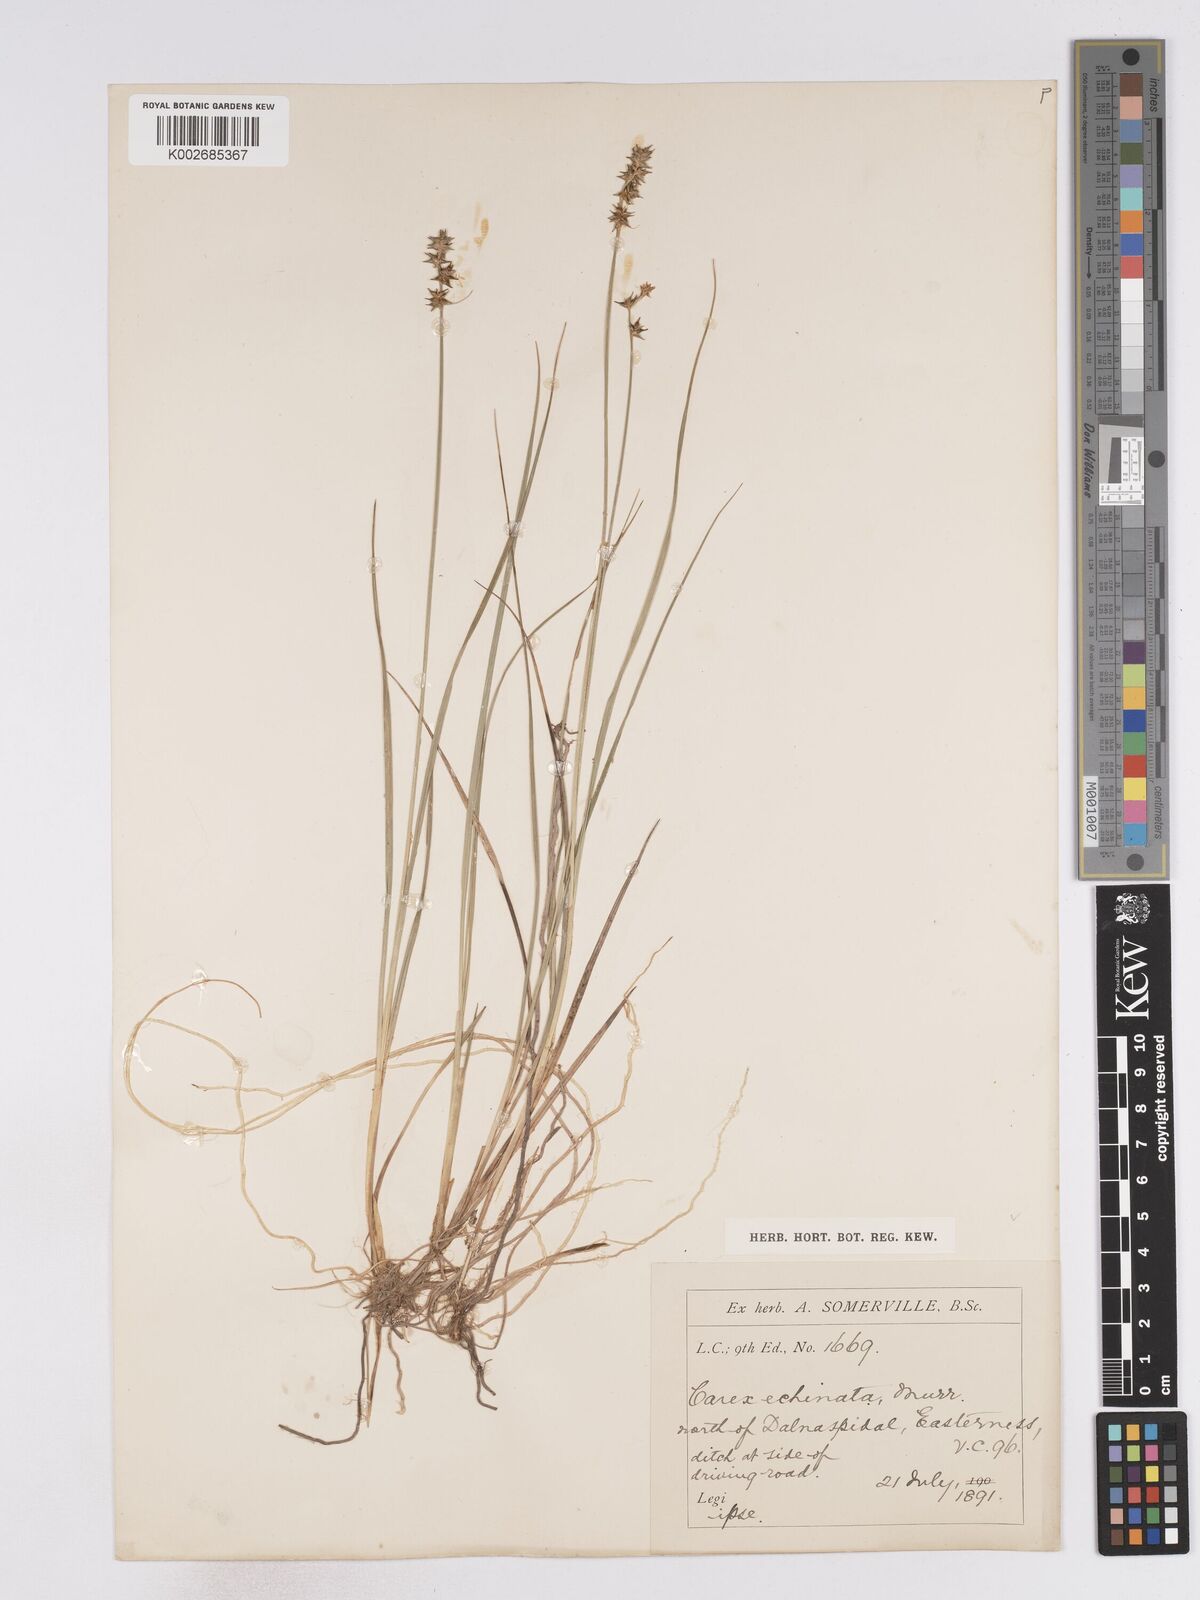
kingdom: Plantae
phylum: Tracheophyta
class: Liliopsida
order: Poales
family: Cyperaceae
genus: Carex
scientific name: Carex echinata
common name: Star sedge
